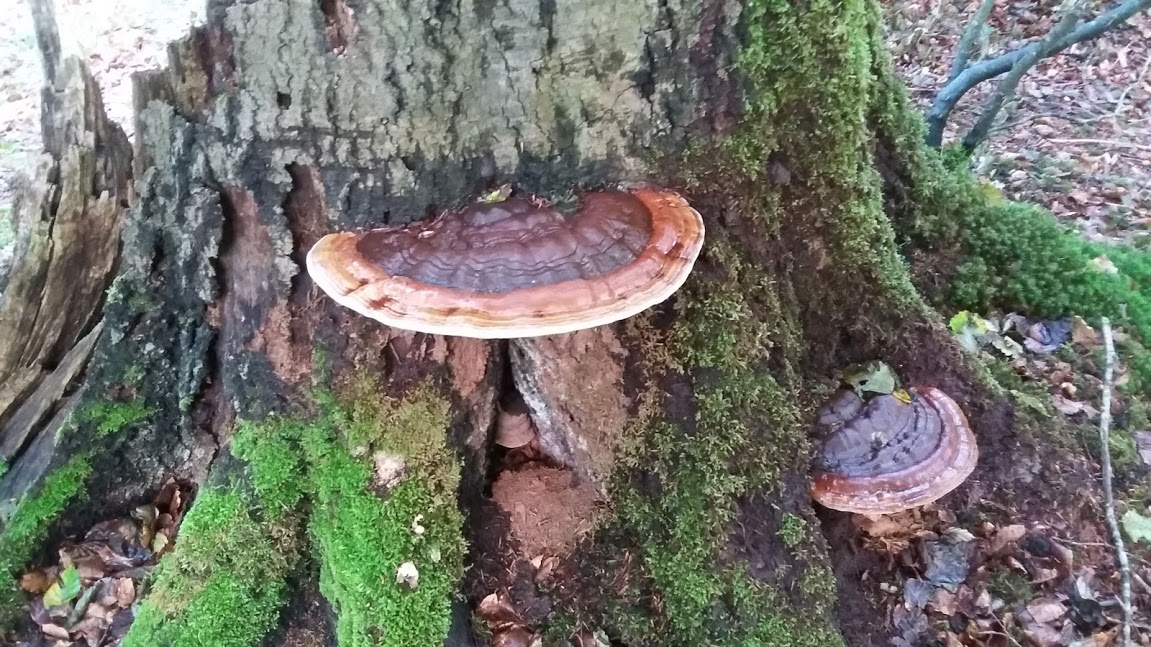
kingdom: Fungi
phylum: Basidiomycota
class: Agaricomycetes
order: Polyporales
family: Polyporaceae
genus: Ganoderma
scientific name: Ganoderma applanatum
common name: flad lakporesvamp
